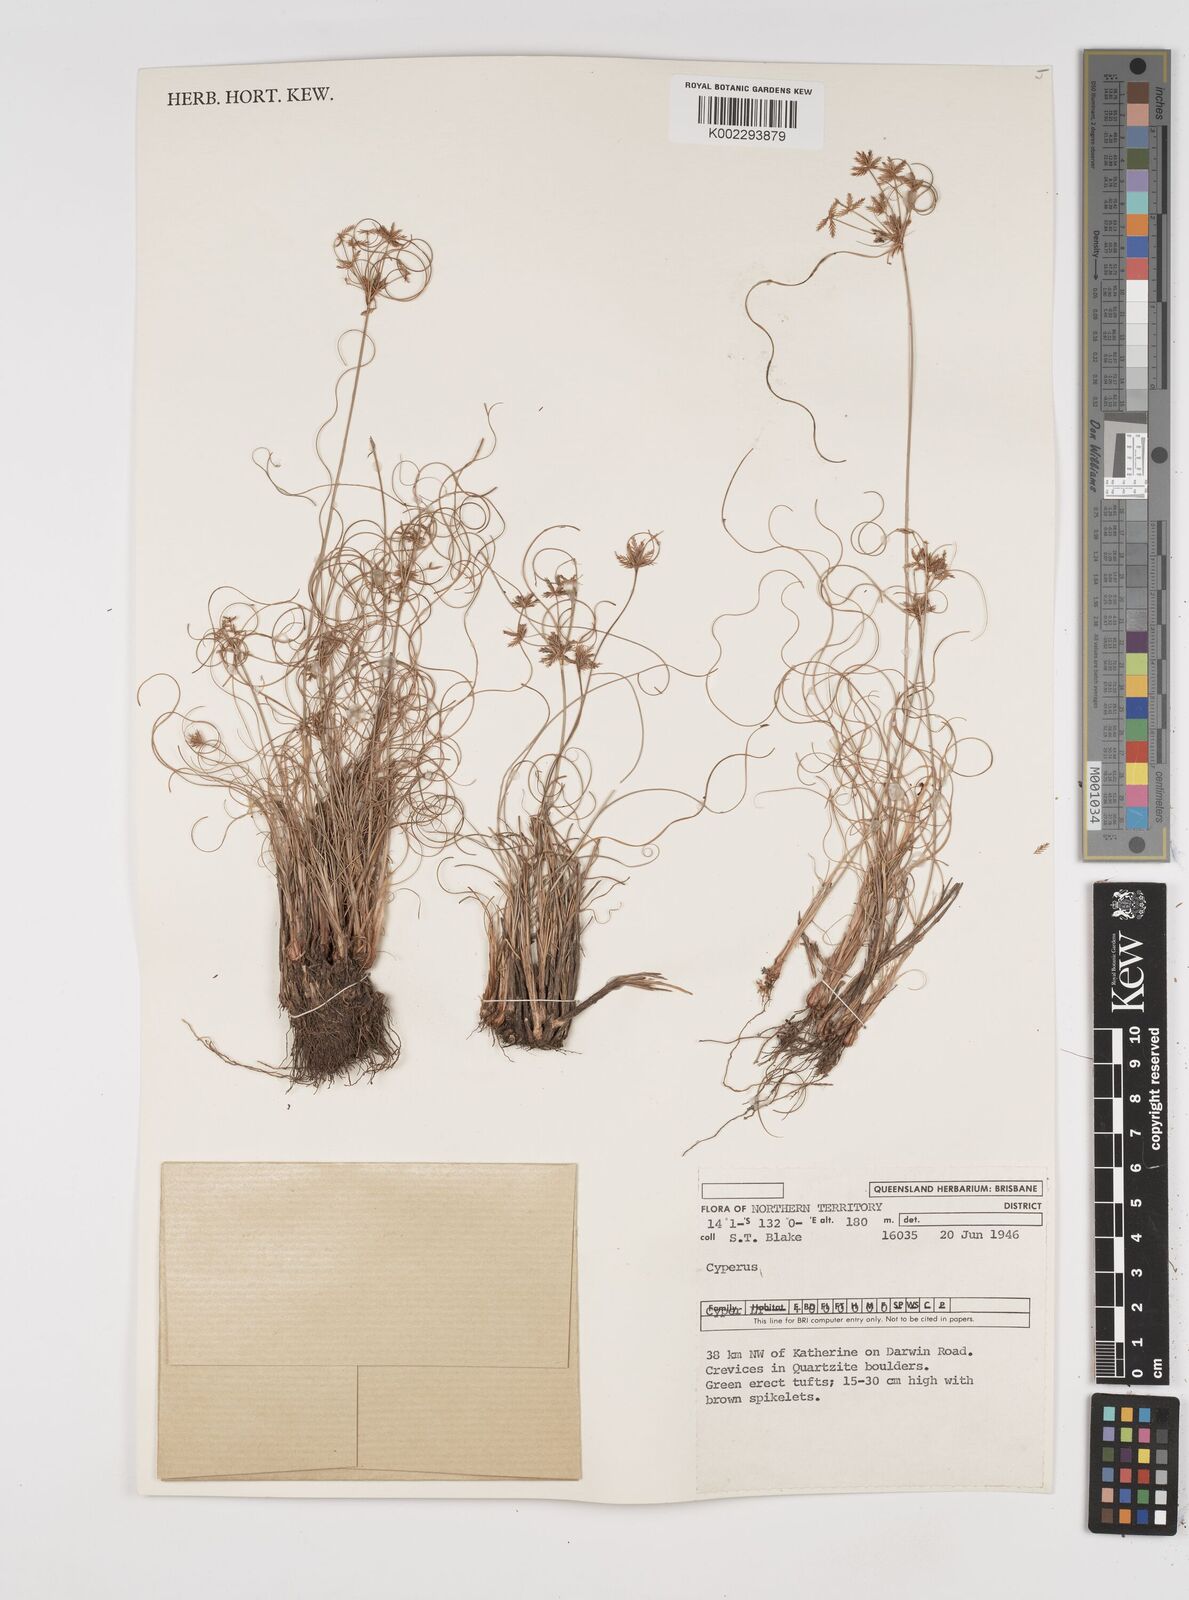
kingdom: Plantae
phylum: Tracheophyta
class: Liliopsida
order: Poales
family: Cyperaceae
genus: Cyperus
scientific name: Cyperus
